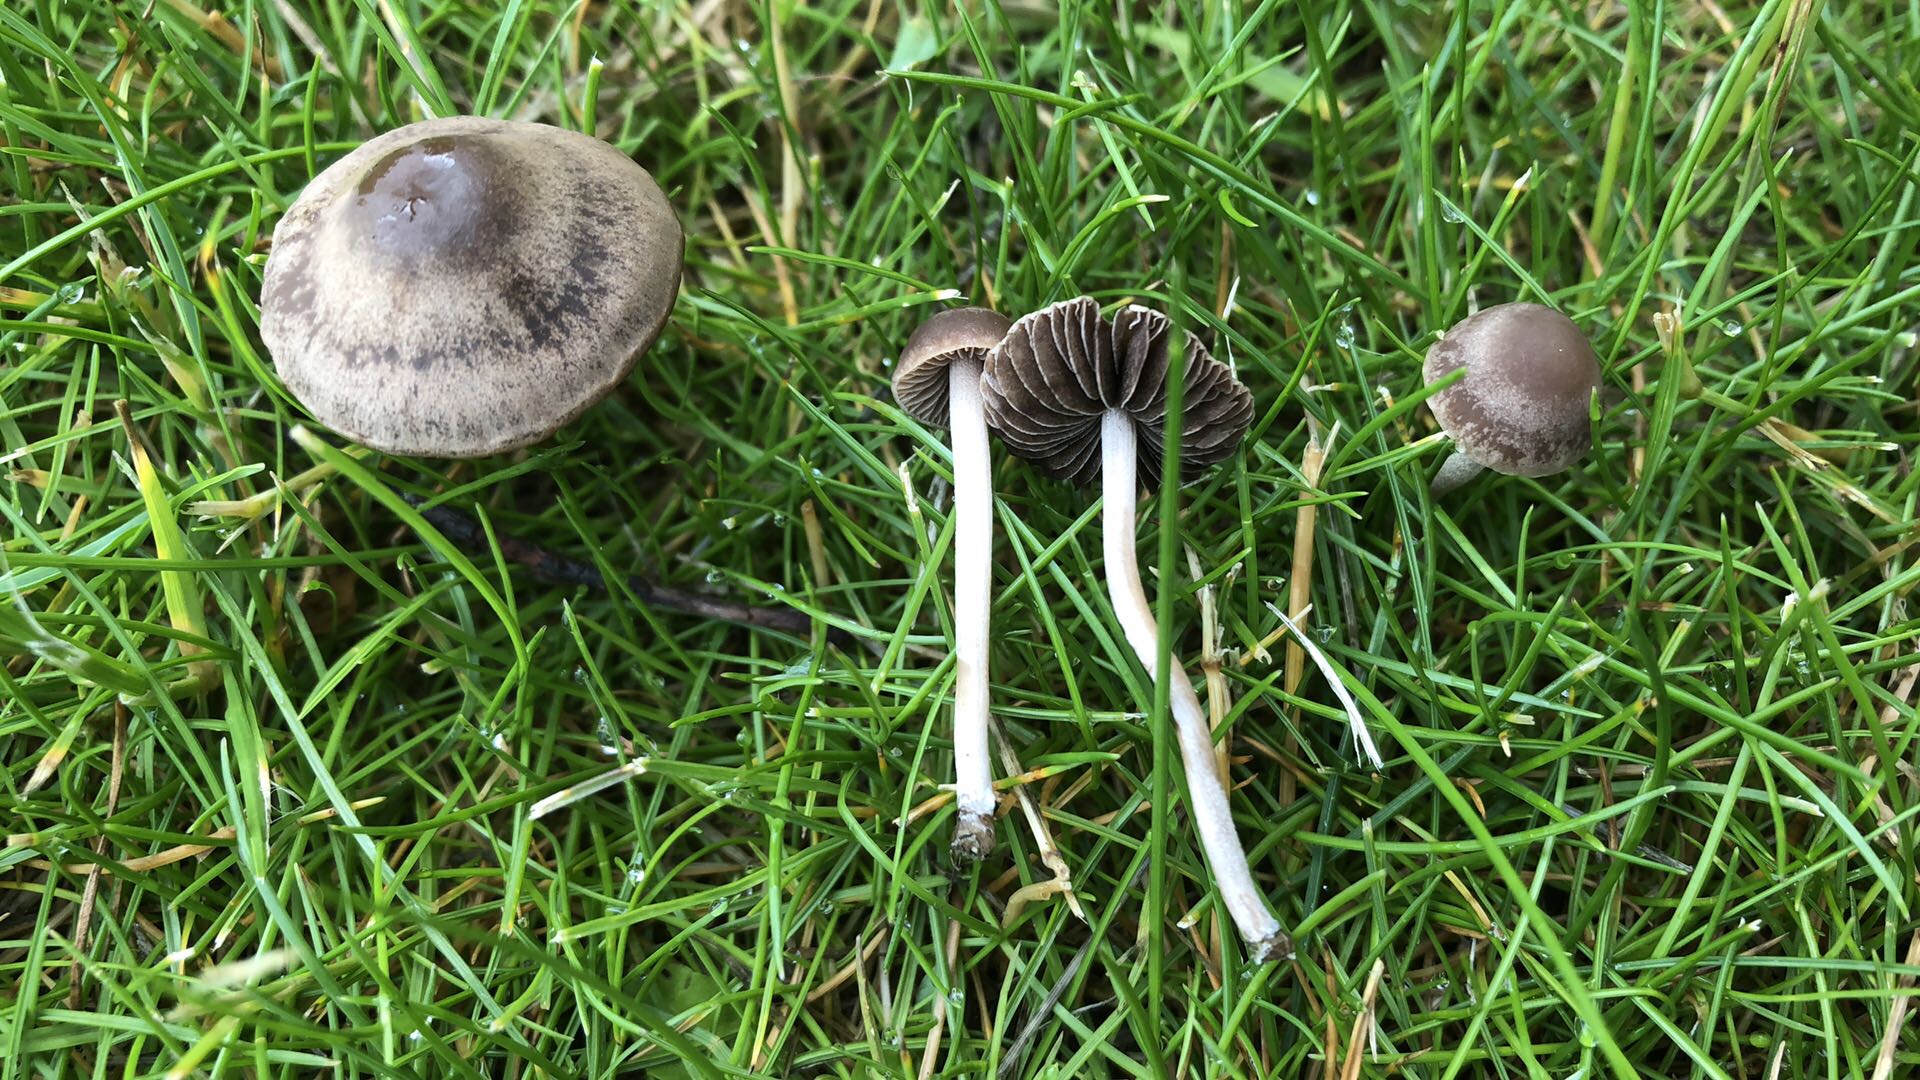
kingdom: Fungi
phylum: Basidiomycota
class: Agaricomycetes
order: Agaricales
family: Bolbitiaceae
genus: Panaeolina
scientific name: Panaeolina foenisecii
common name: høslætsvamp
